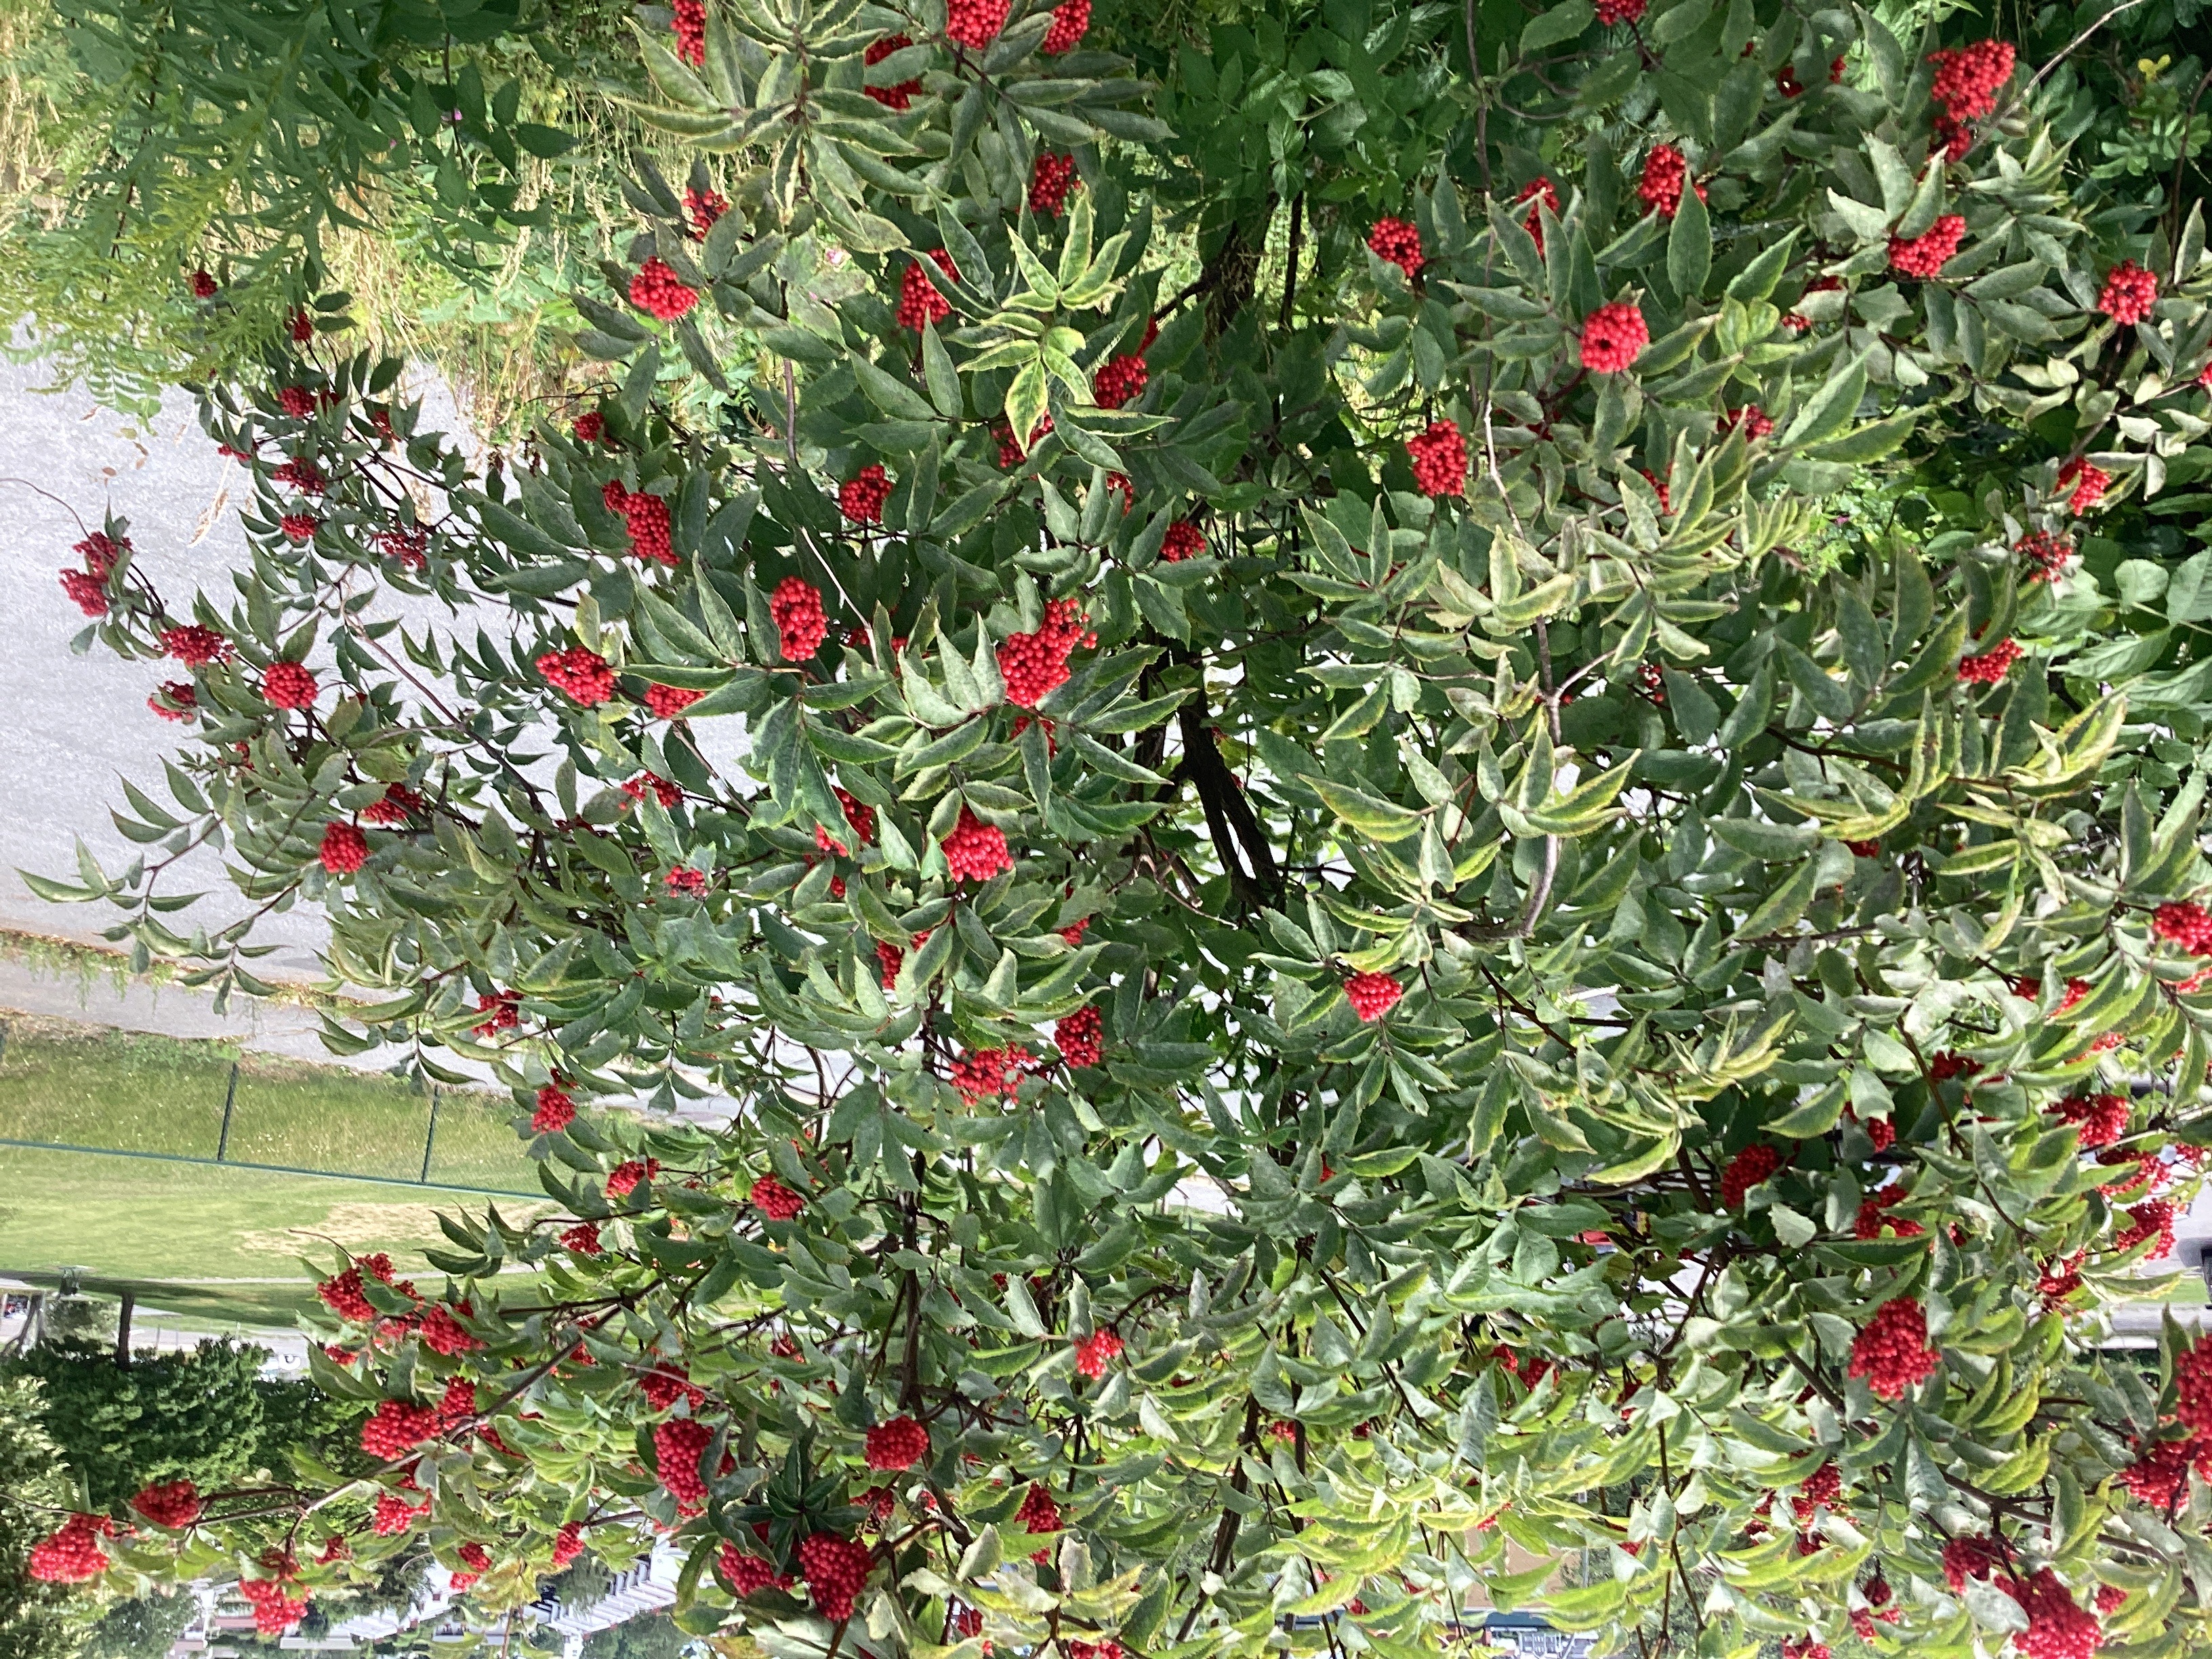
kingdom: Plantae
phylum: Tracheophyta
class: Magnoliopsida
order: Dipsacales
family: Viburnaceae
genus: Sambucus
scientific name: Sambucus racemosa
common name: rødhyll
